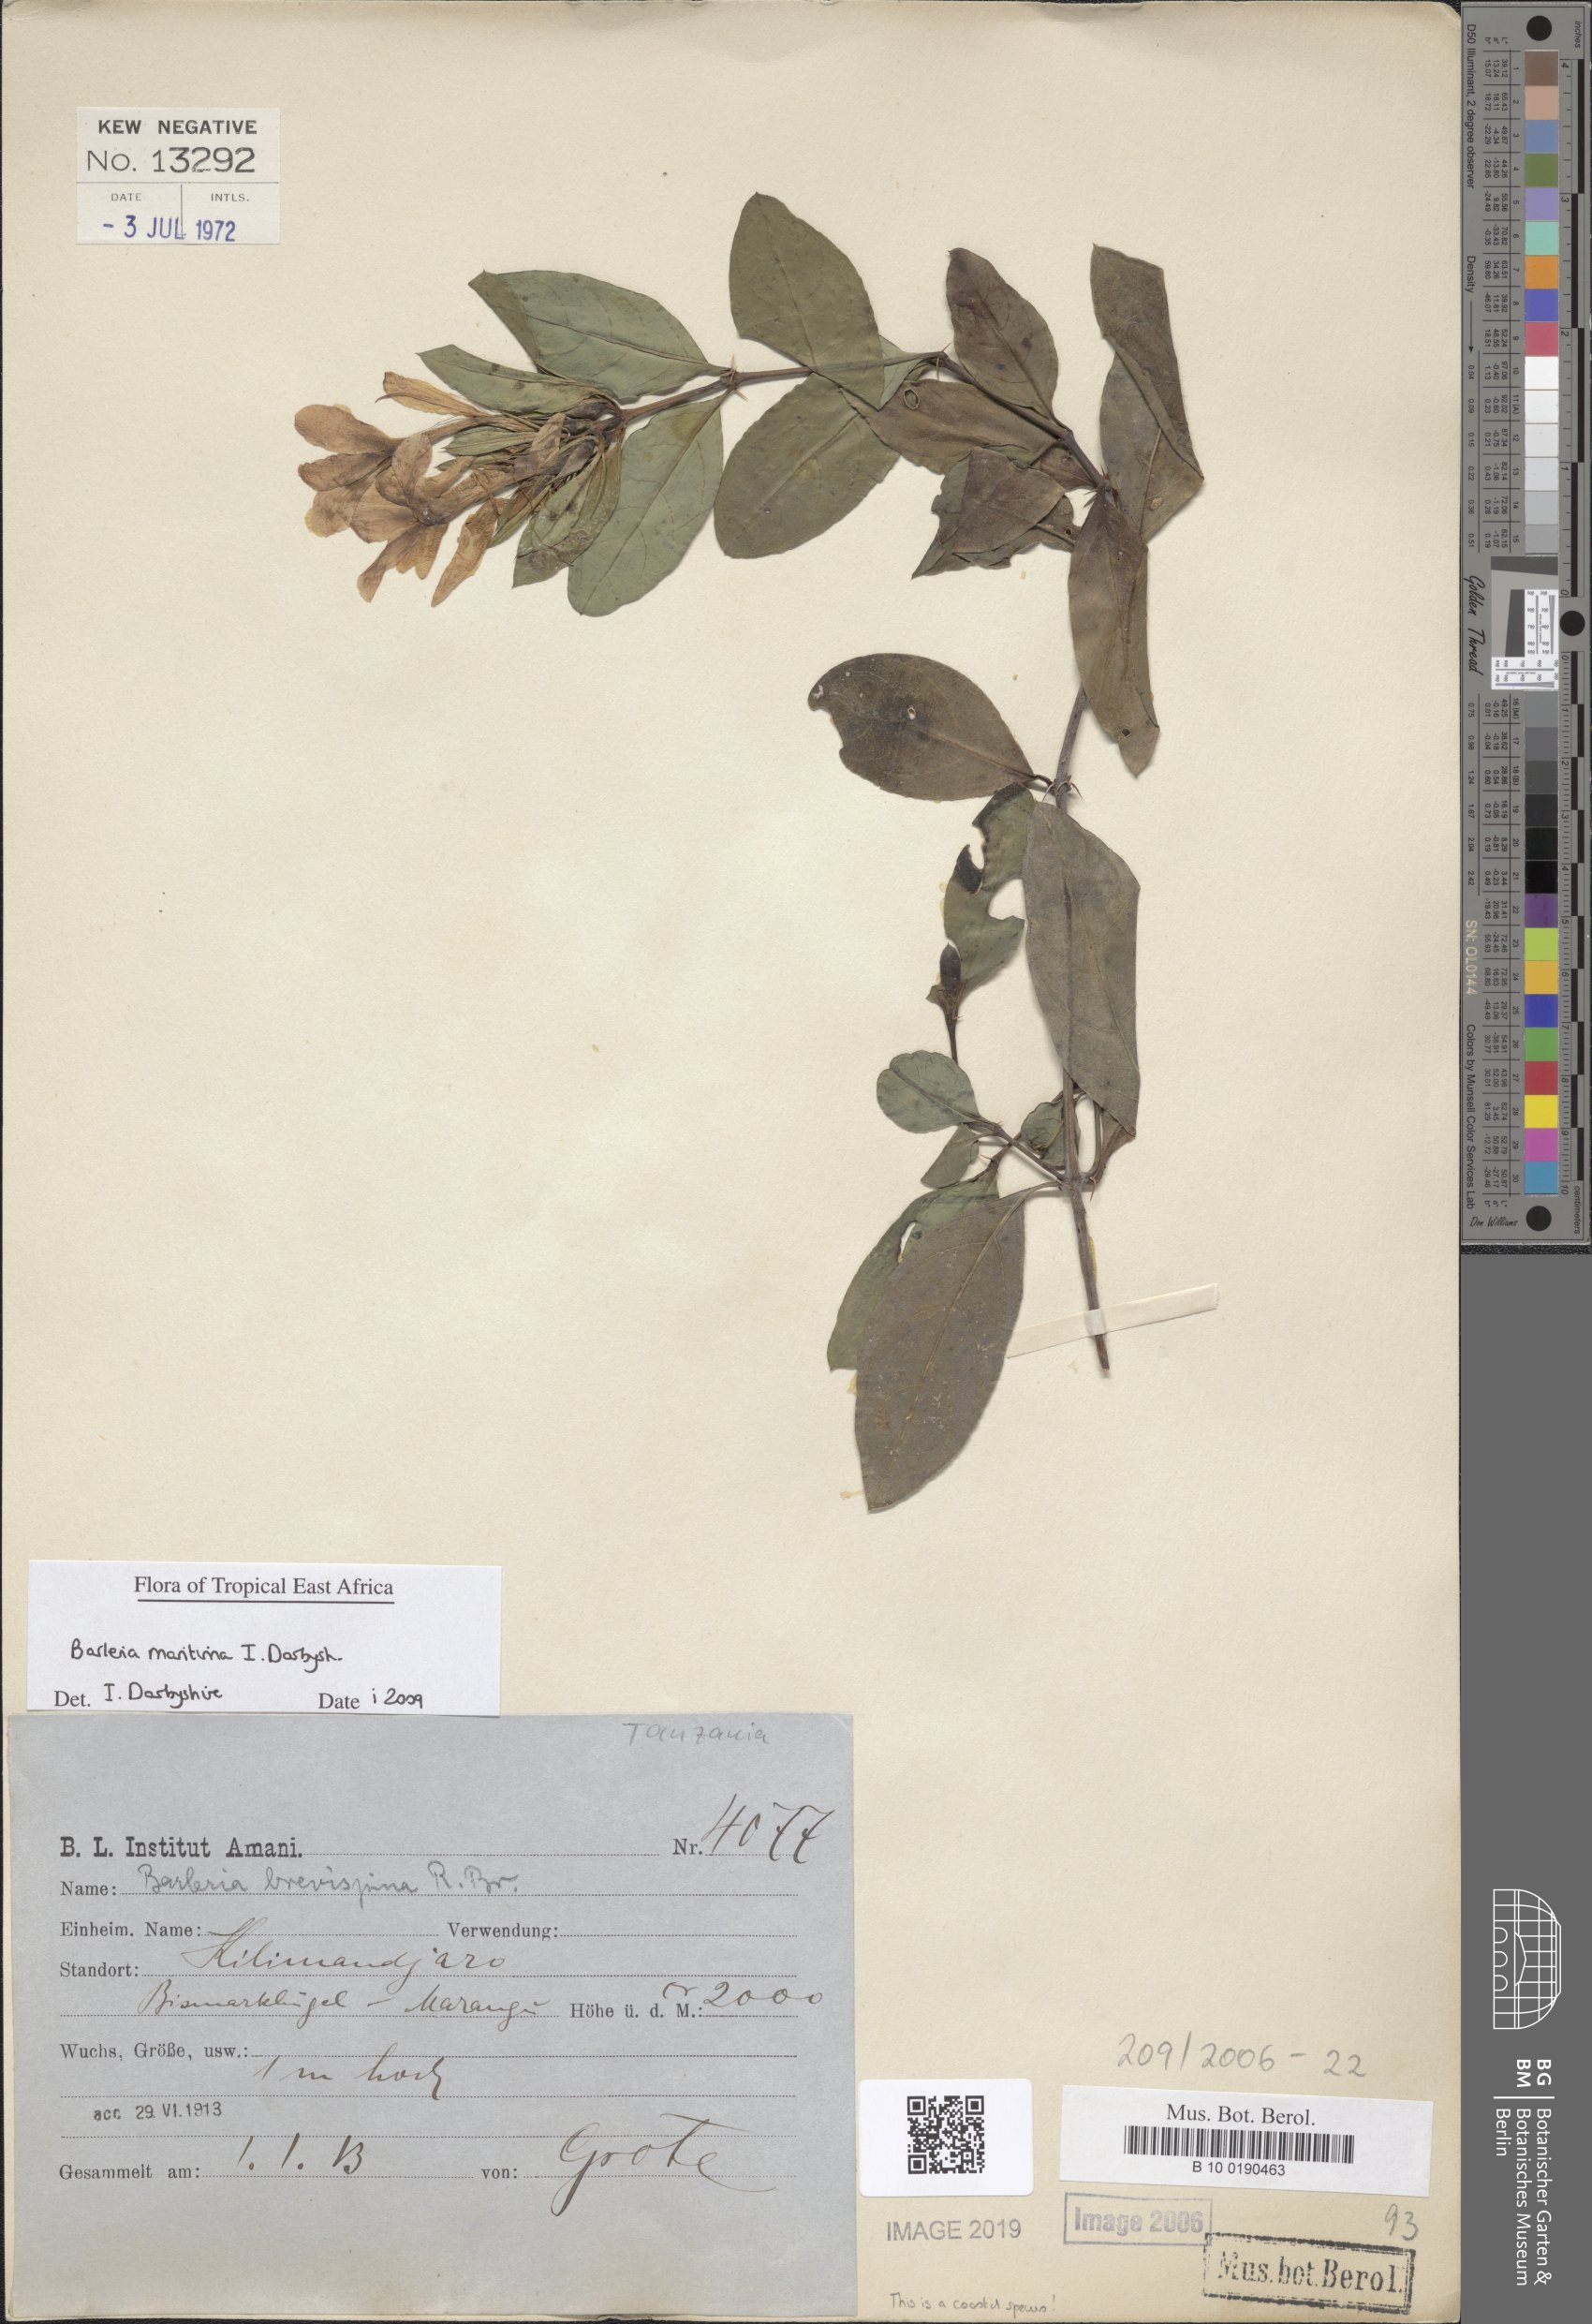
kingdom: Plantae
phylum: Tracheophyta
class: Magnoliopsida
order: Lamiales
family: Acanthaceae
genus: Barleria
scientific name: Barleria quadrispina
